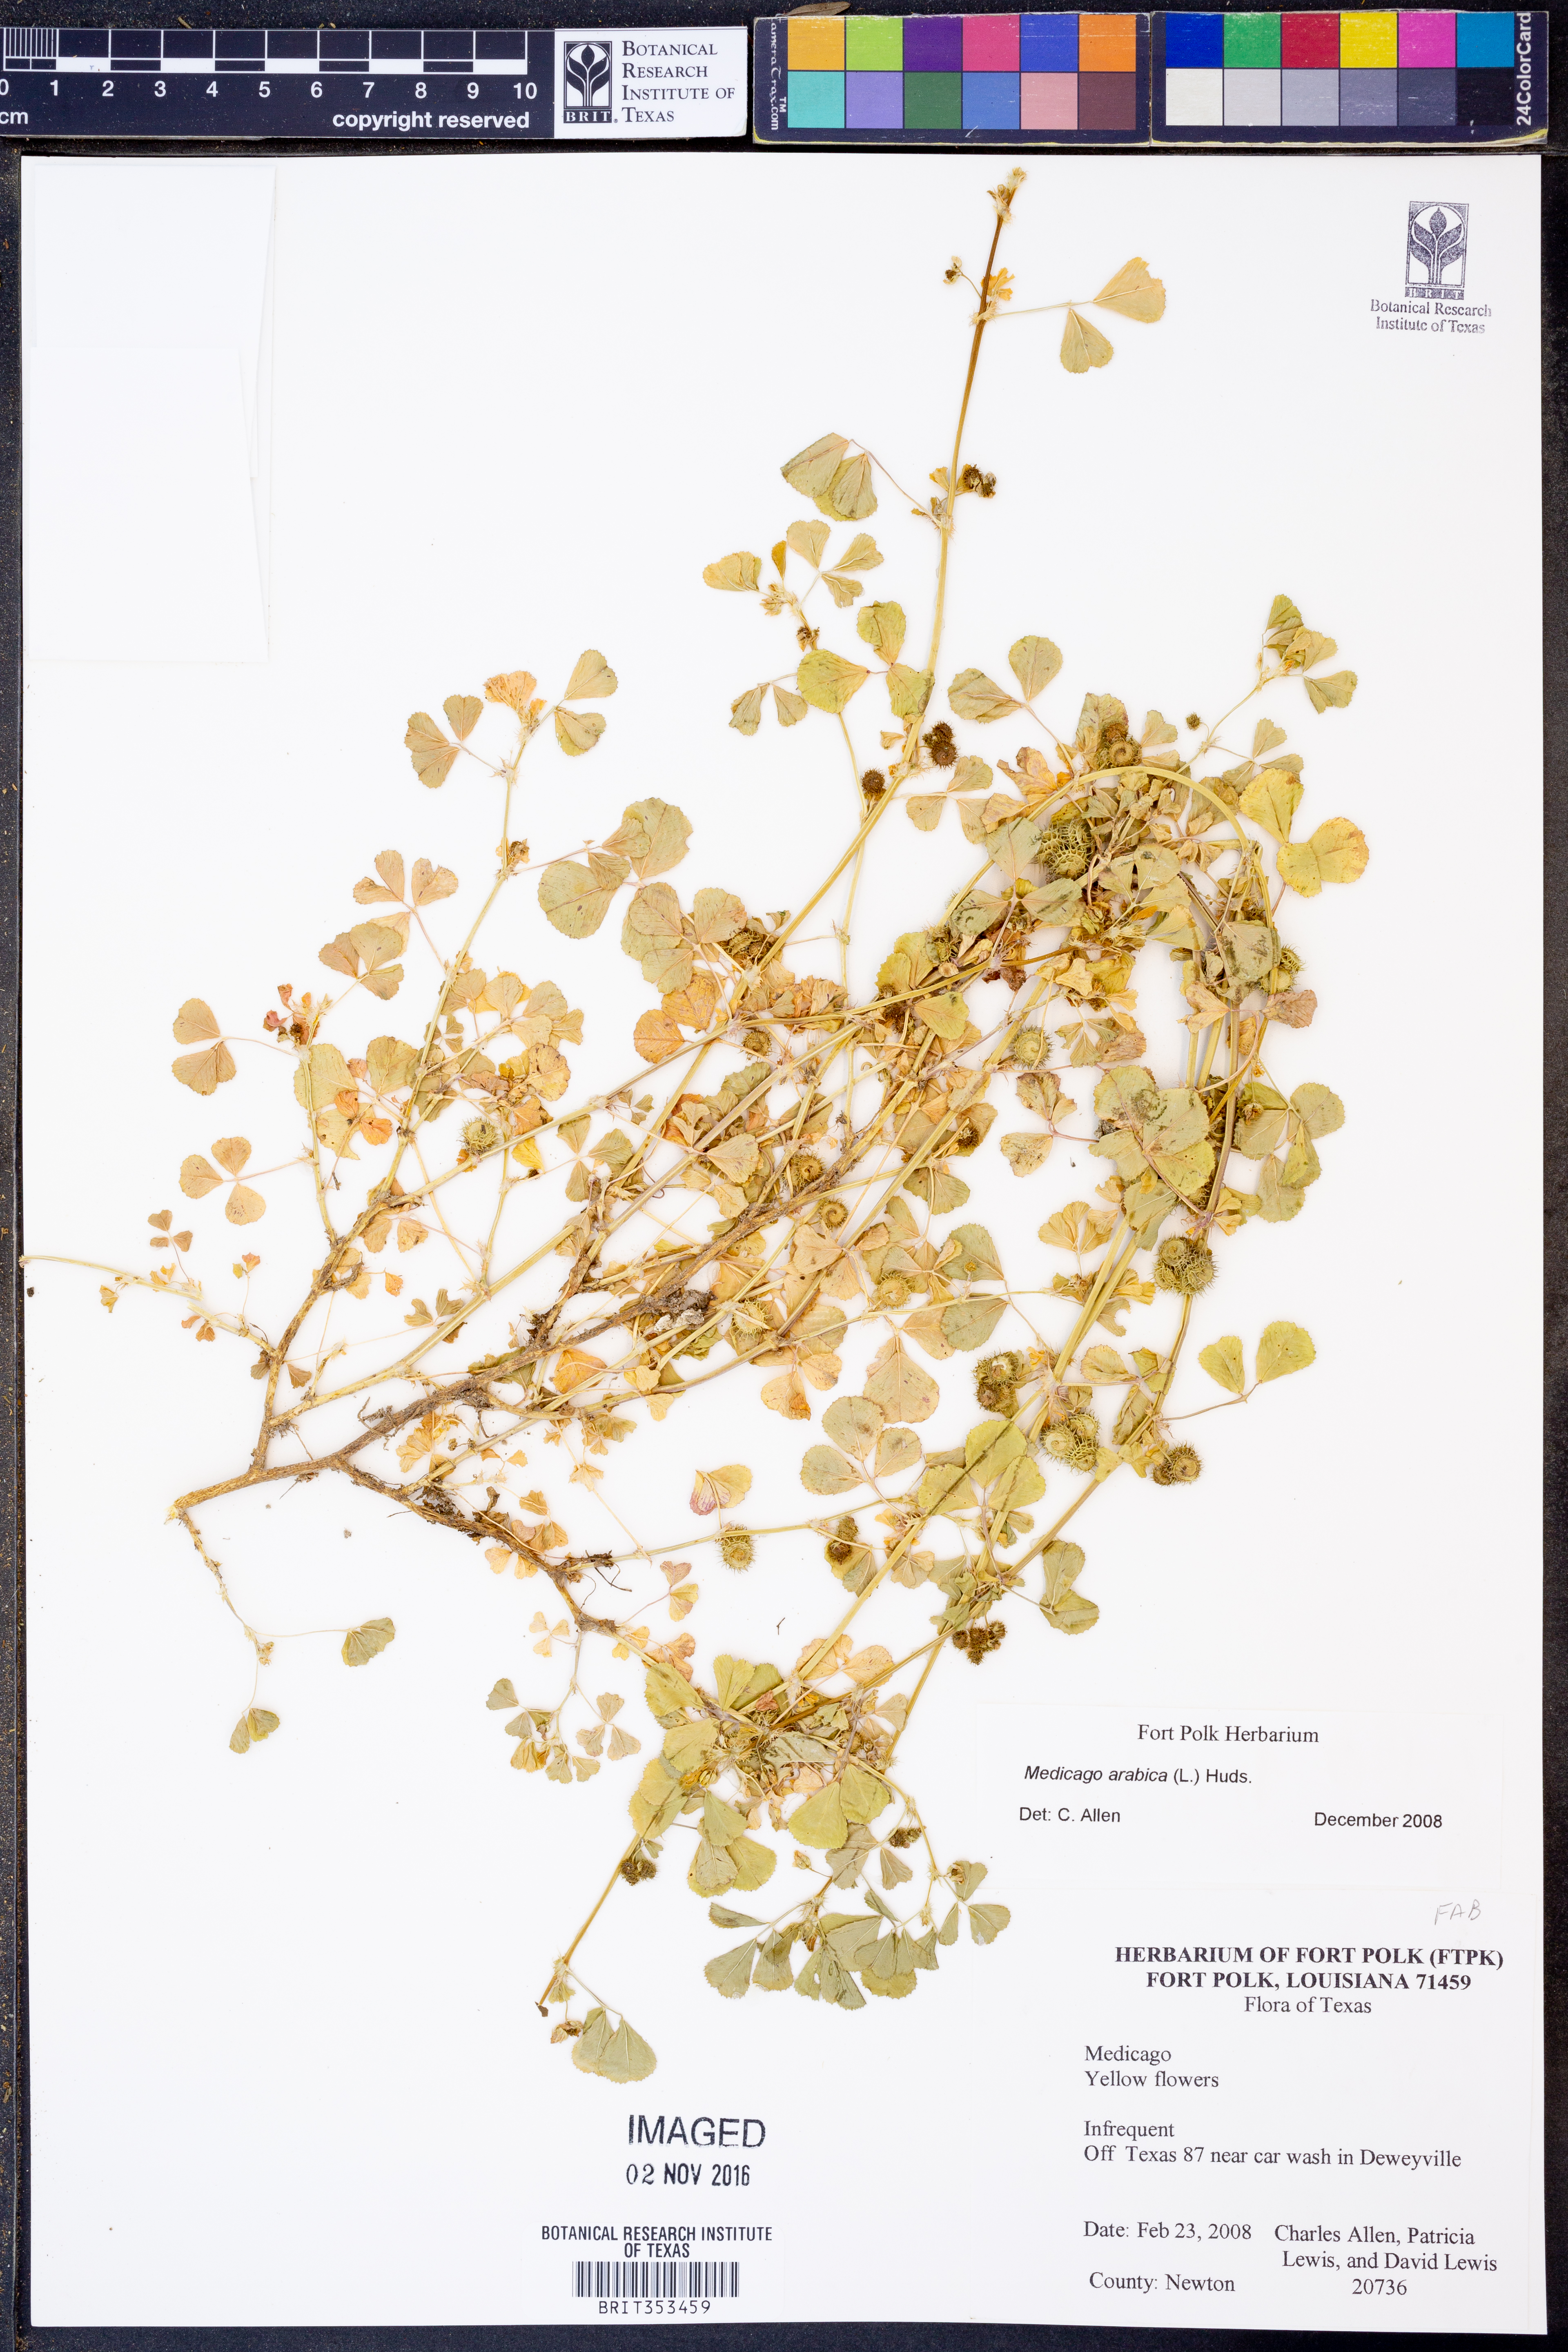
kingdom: Plantae
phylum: Tracheophyta
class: Magnoliopsida
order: Fabales
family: Fabaceae
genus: Medicago
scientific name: Medicago arabica
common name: Spotted medick
